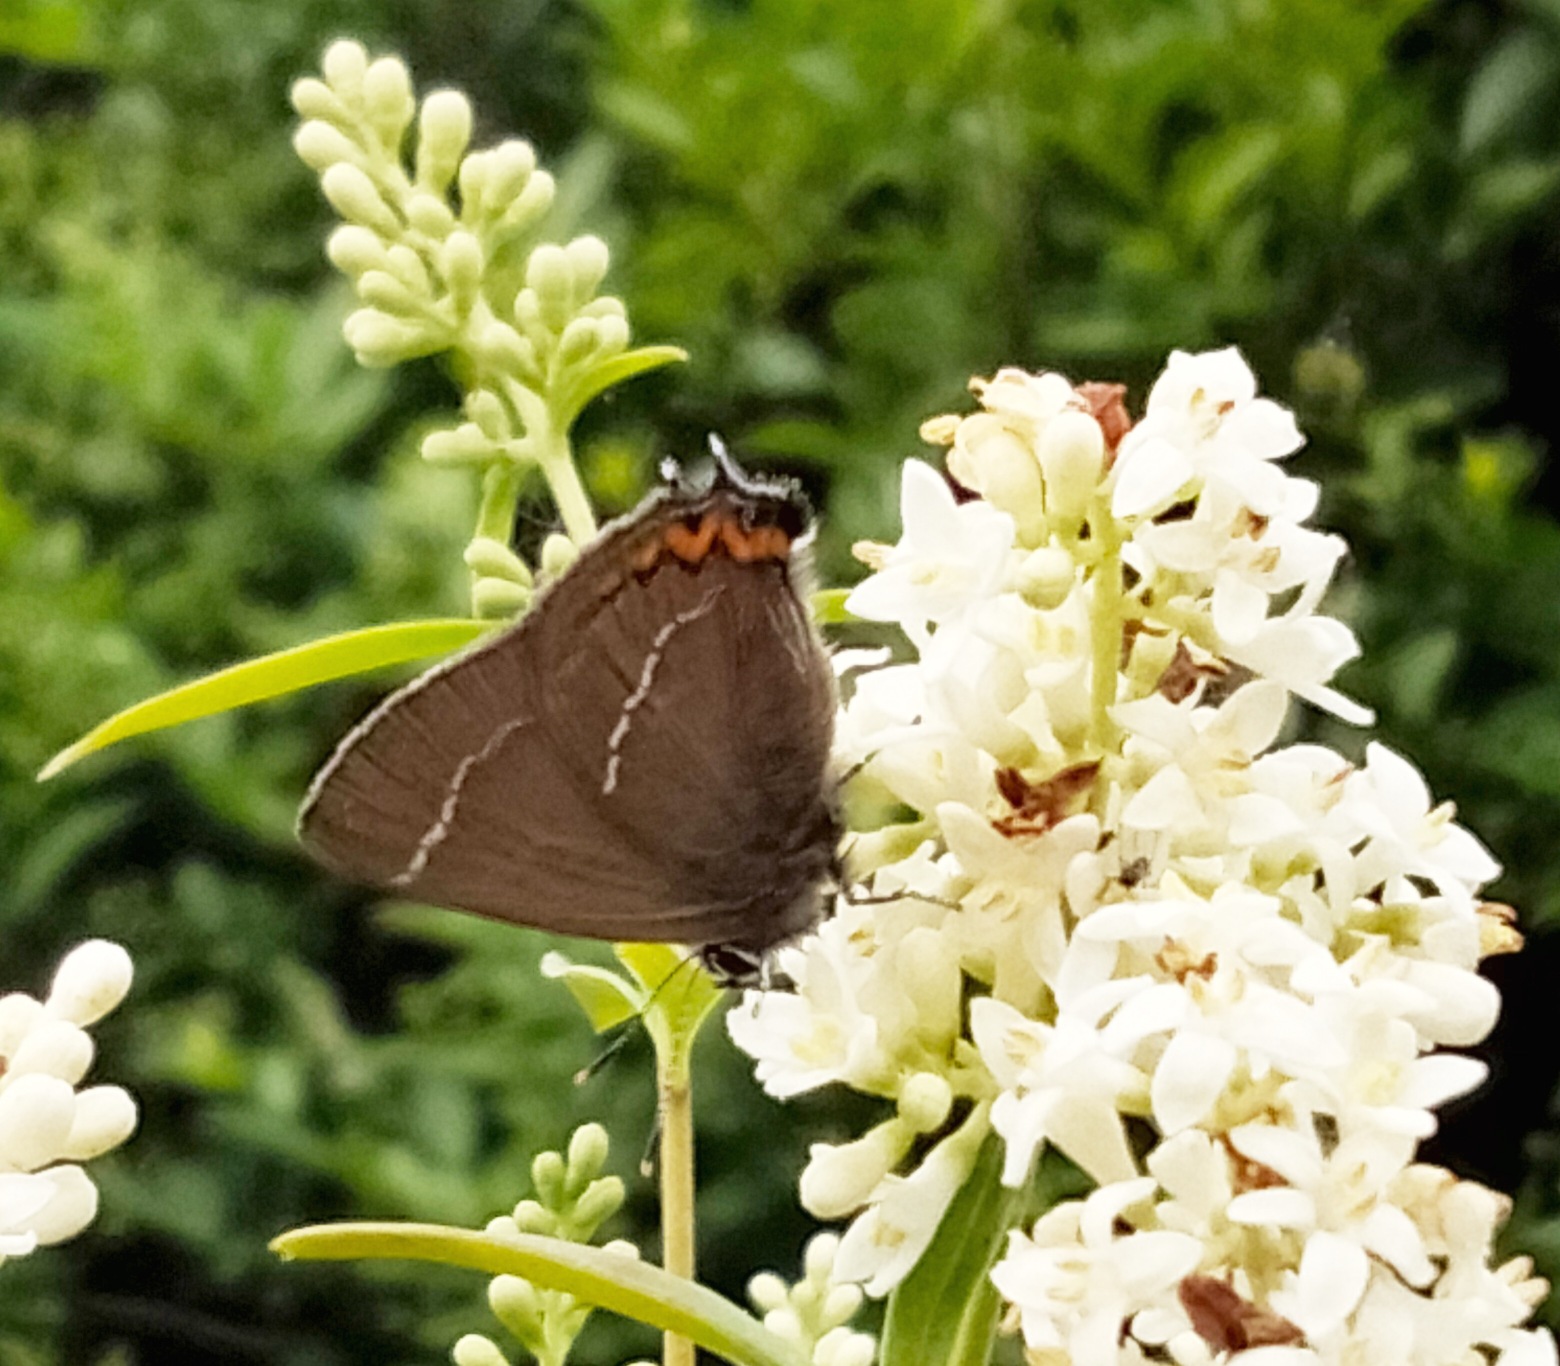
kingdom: Animalia
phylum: Arthropoda
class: Insecta
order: Lepidoptera
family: Lycaenidae
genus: Satyrium
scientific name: Satyrium w-album
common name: Det hvide W
